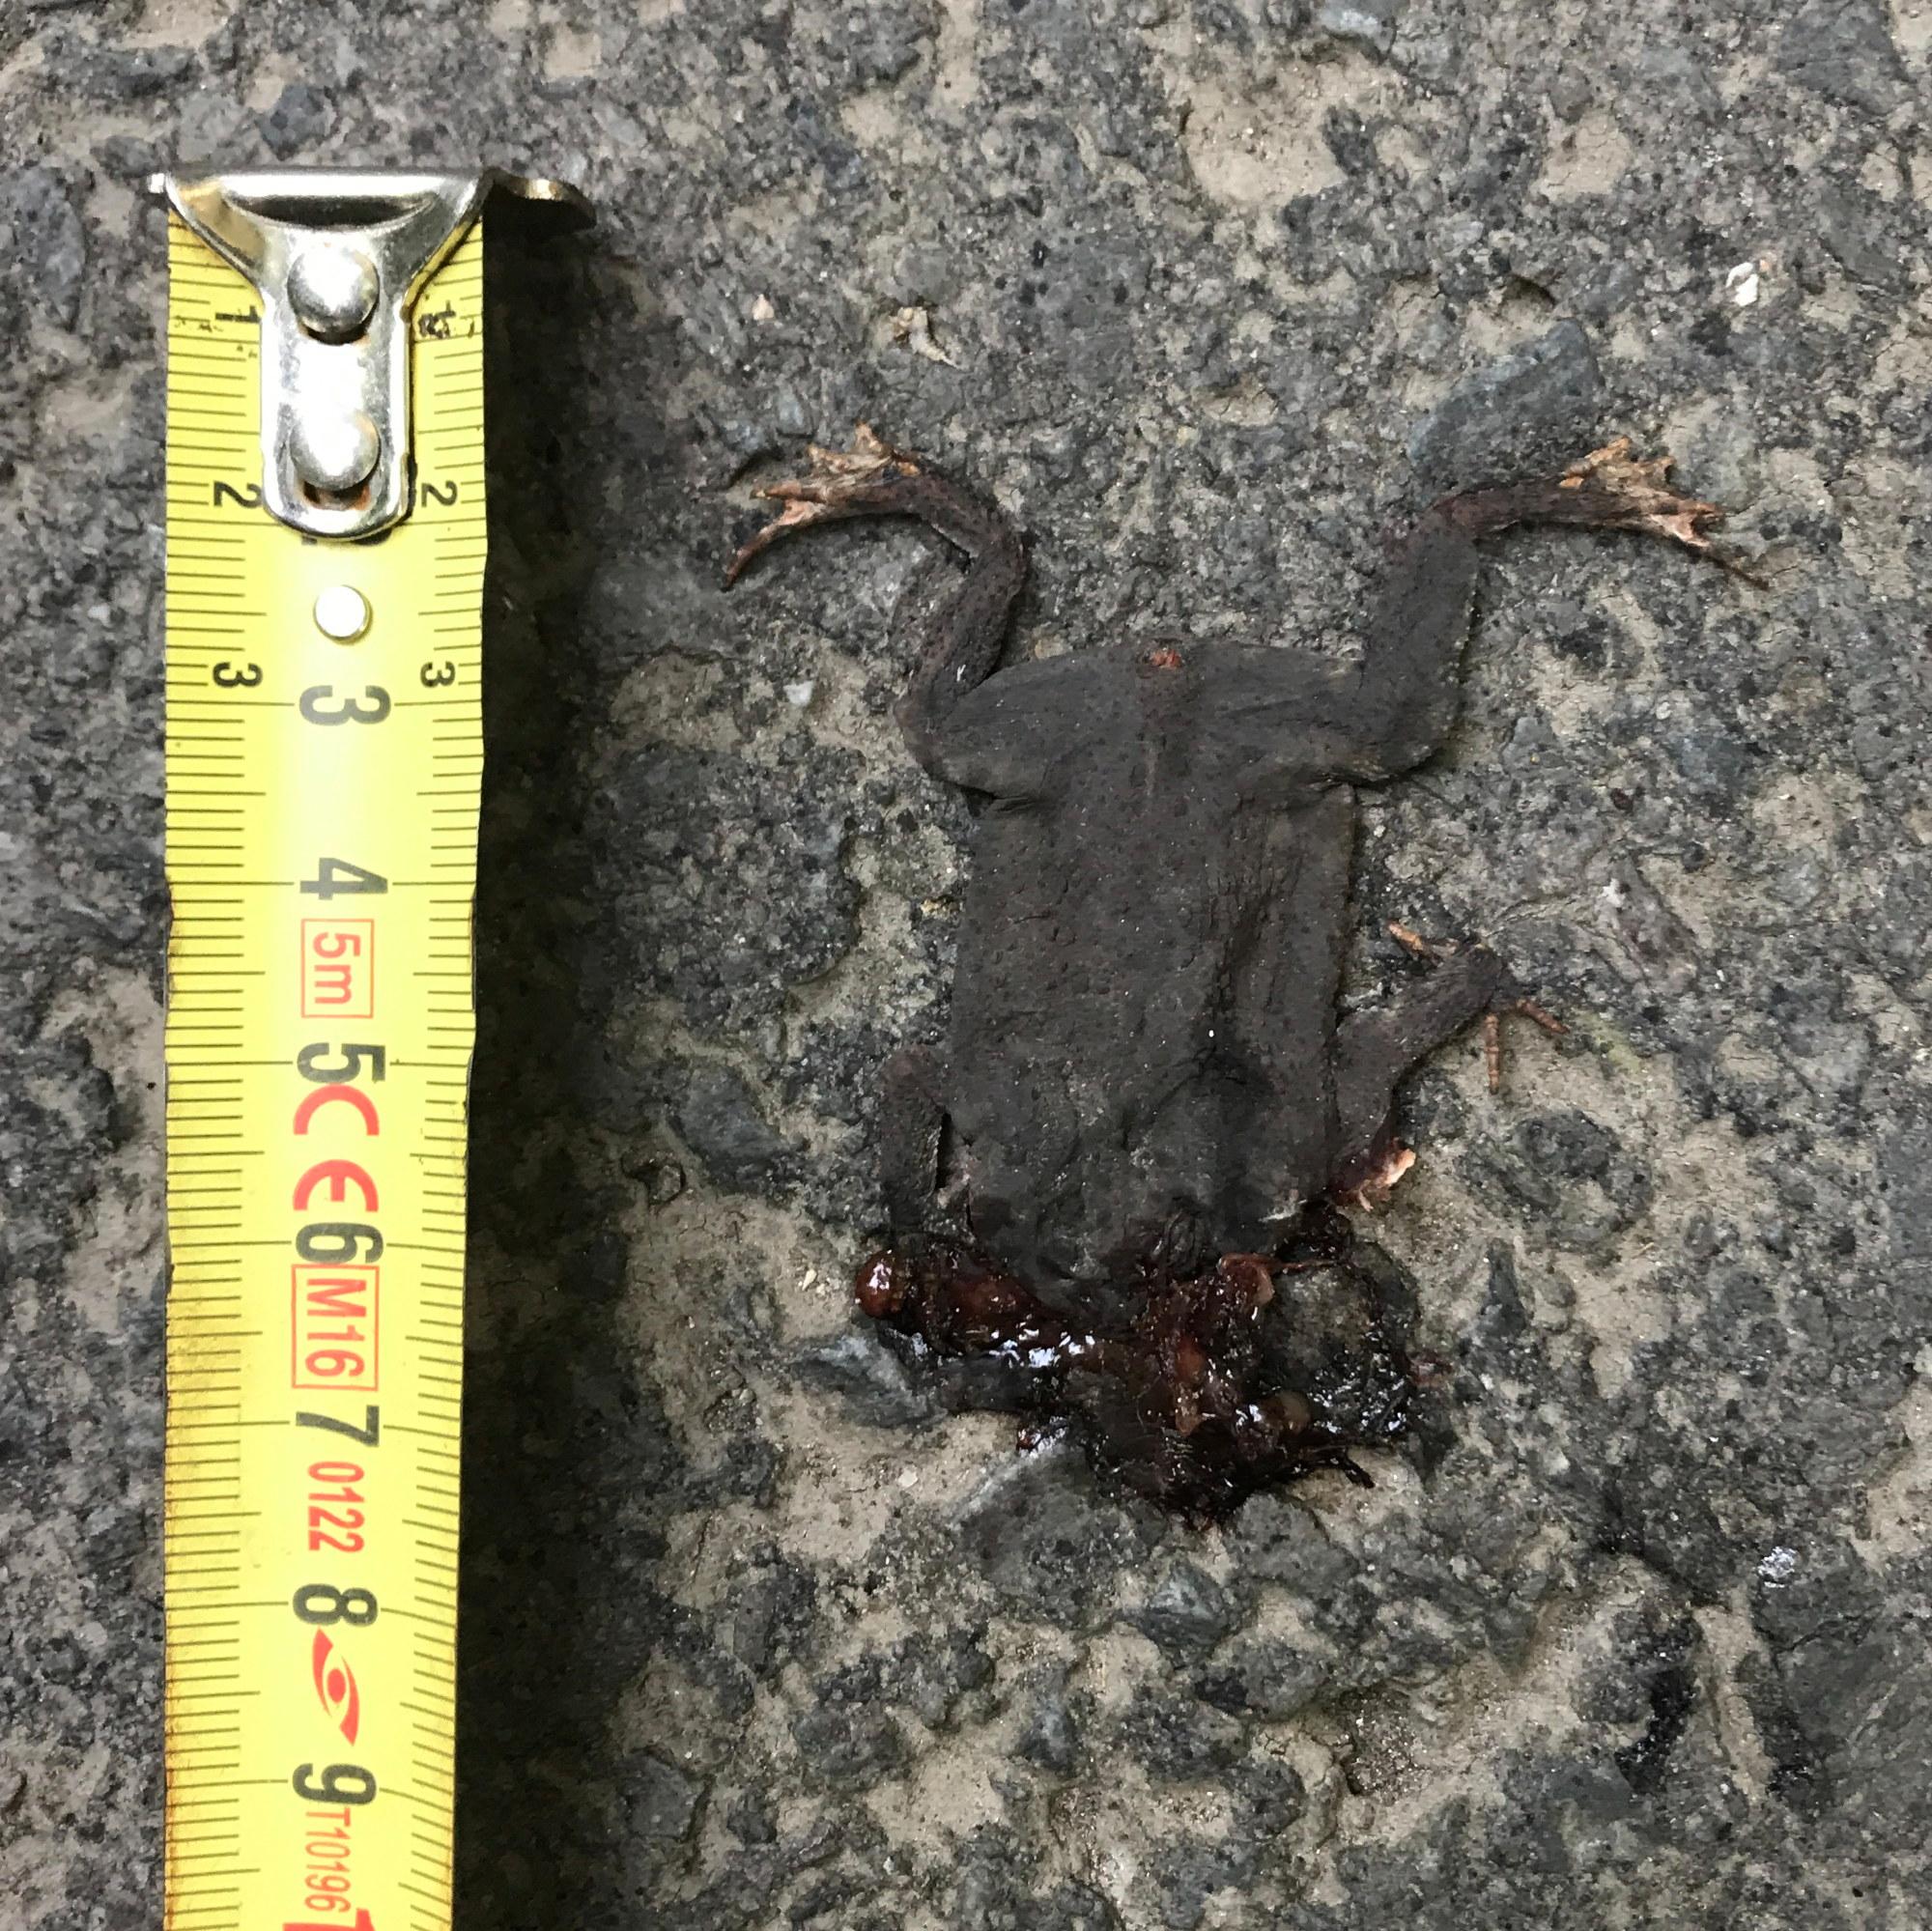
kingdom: Animalia
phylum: Chordata
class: Amphibia
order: Anura
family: Bufonidae
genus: Bufo
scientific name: Bufo bufo
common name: Common toad
